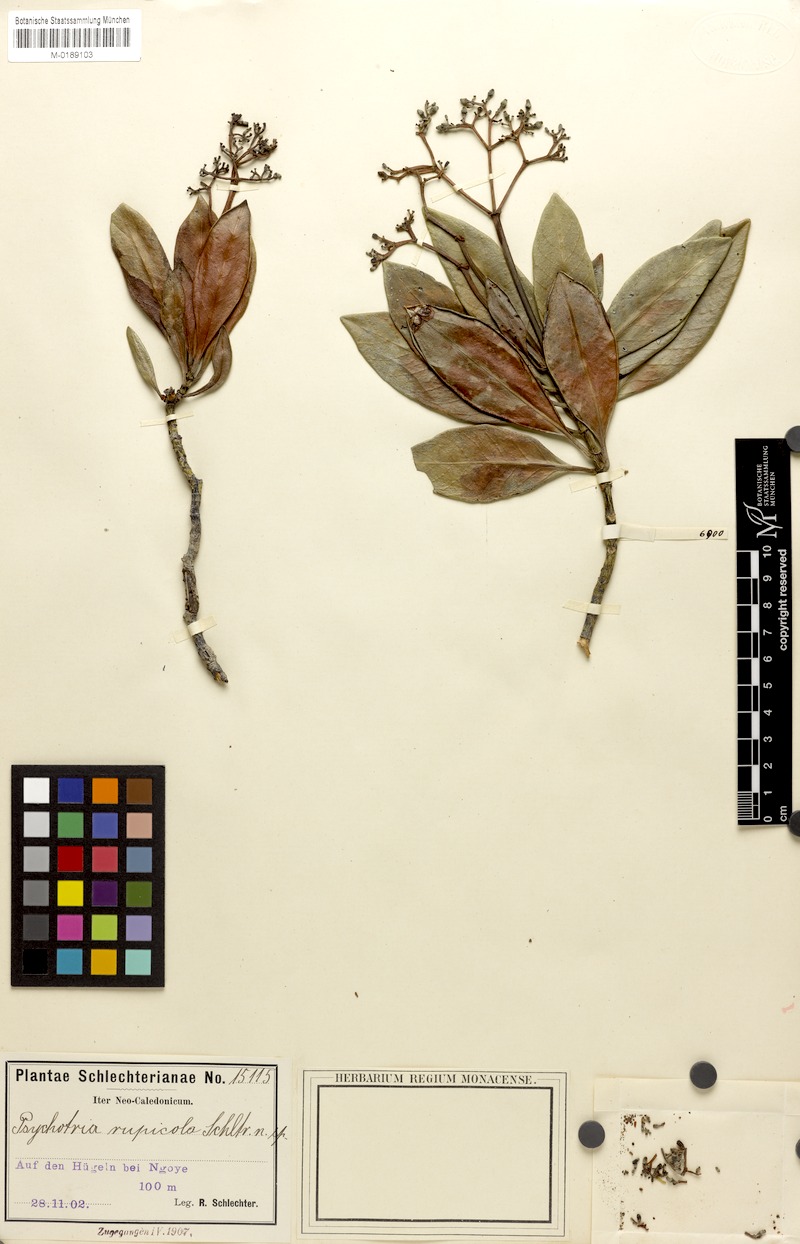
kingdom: Plantae
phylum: Tracheophyta
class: Magnoliopsida
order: Gentianales
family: Rubiaceae
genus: Psychotria
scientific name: Psychotria rupicola
